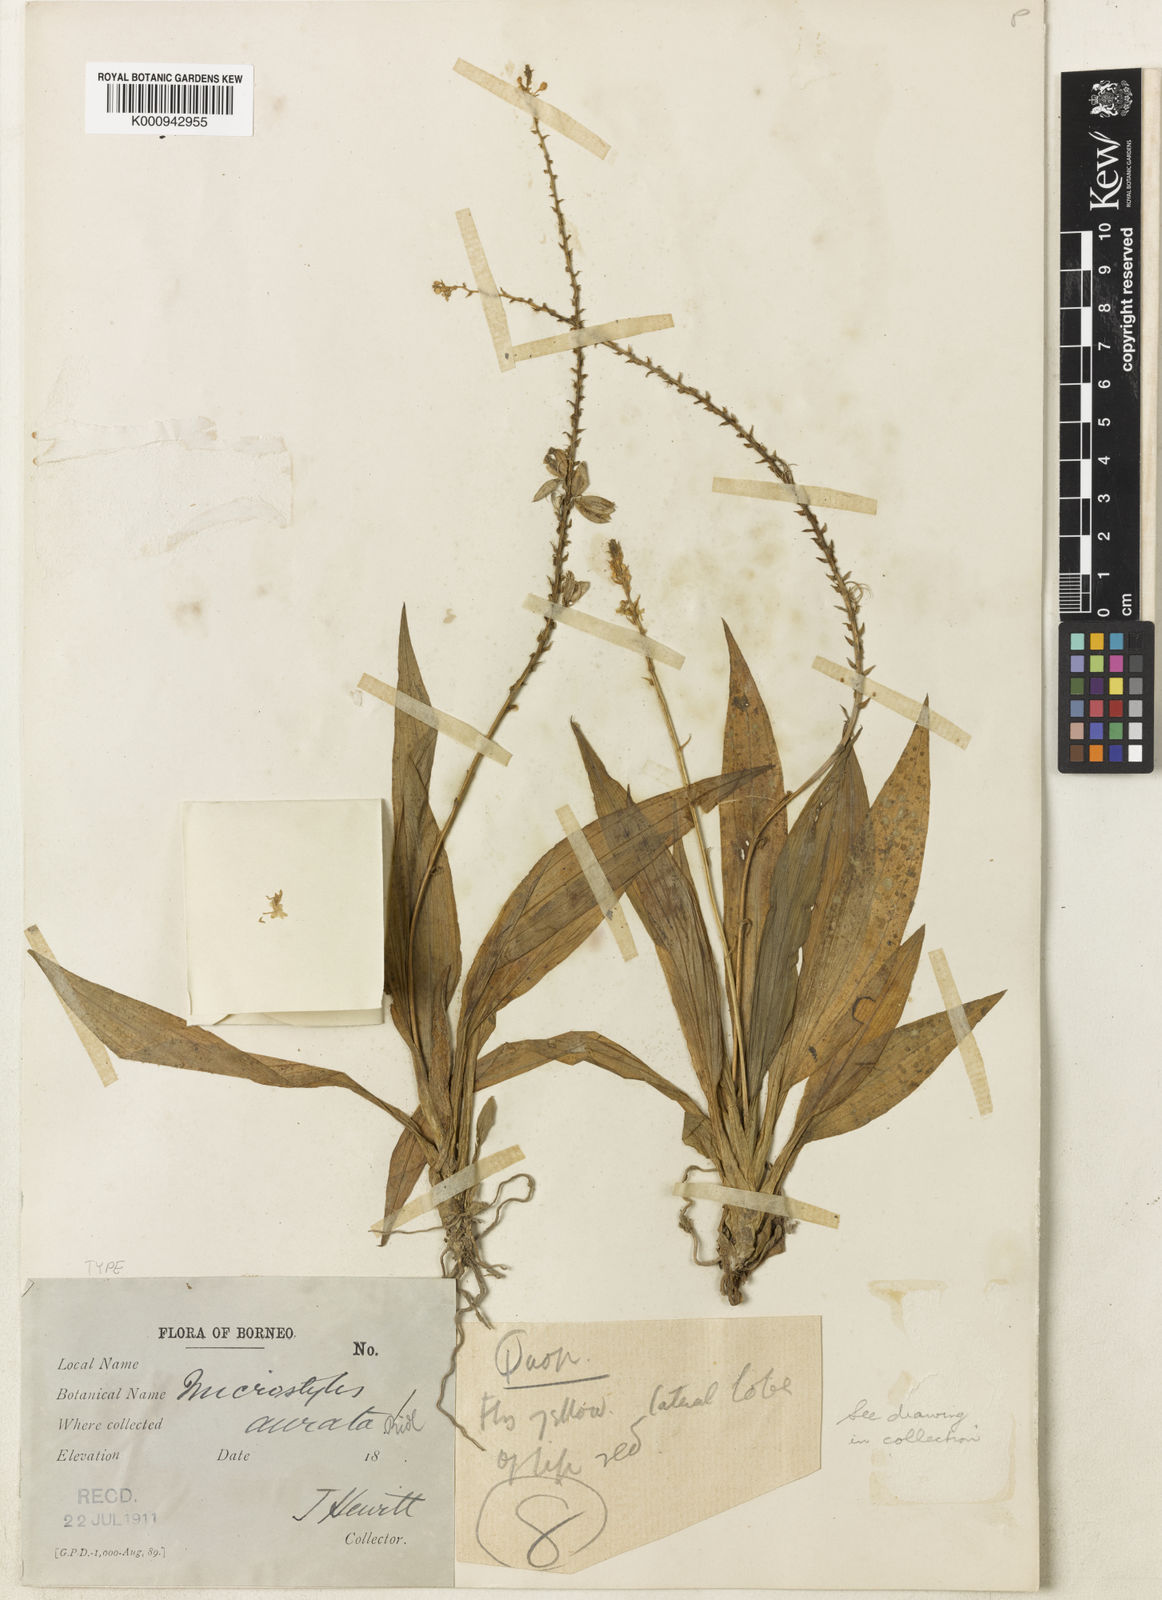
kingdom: Plantae
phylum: Tracheophyta
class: Liliopsida
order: Asparagales
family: Orchidaceae
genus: Crepidium
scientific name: Crepidium auratum
